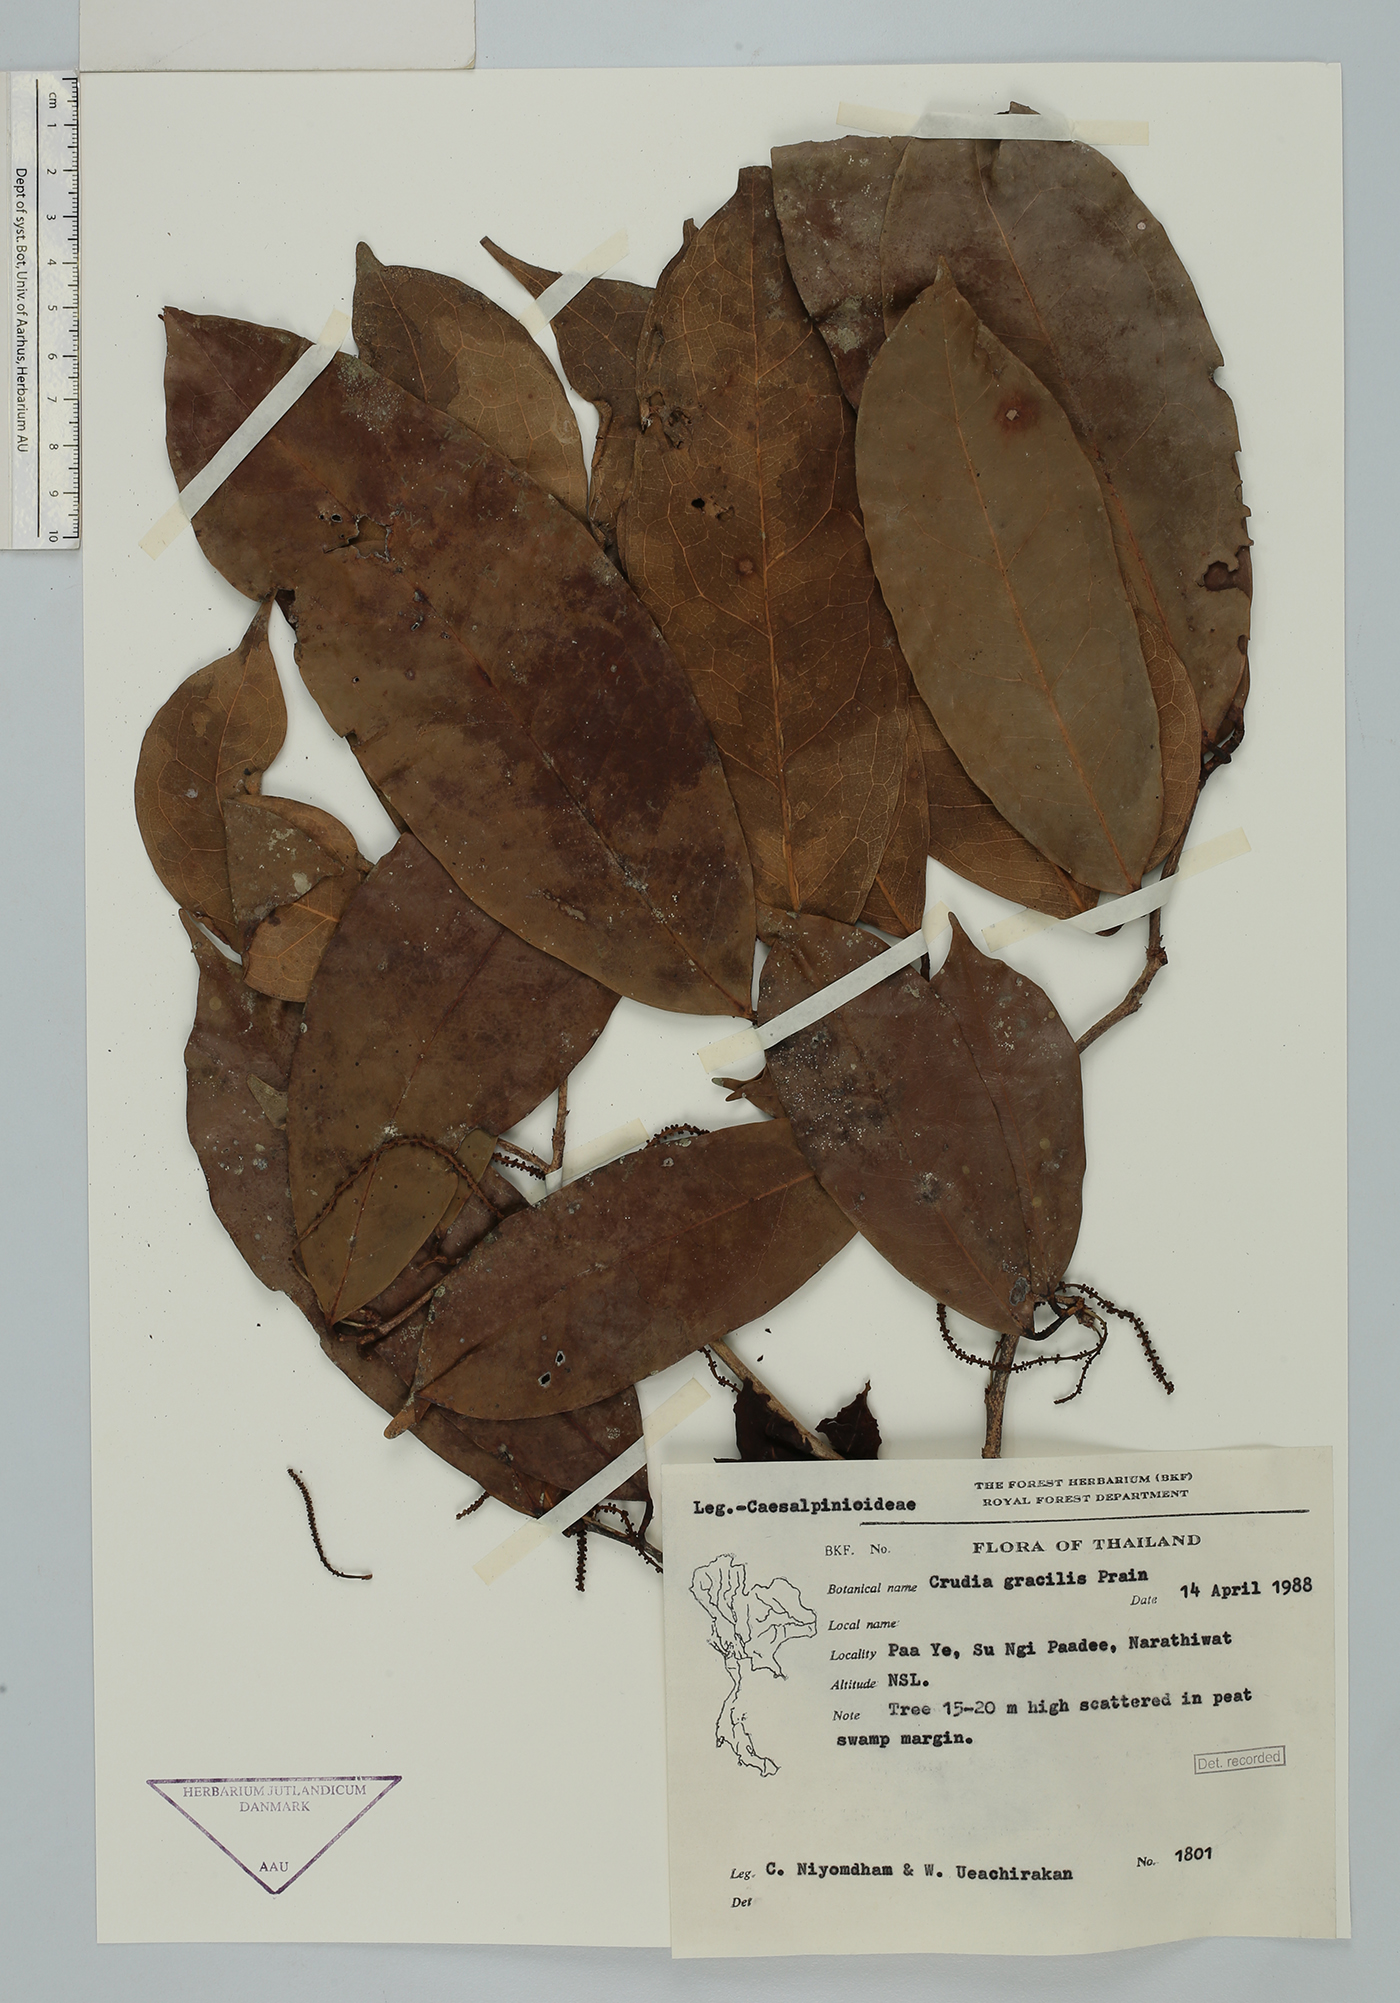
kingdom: Plantae
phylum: Tracheophyta
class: Magnoliopsida
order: Fabales
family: Fabaceae
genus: Crudia
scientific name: Crudia gracilis
